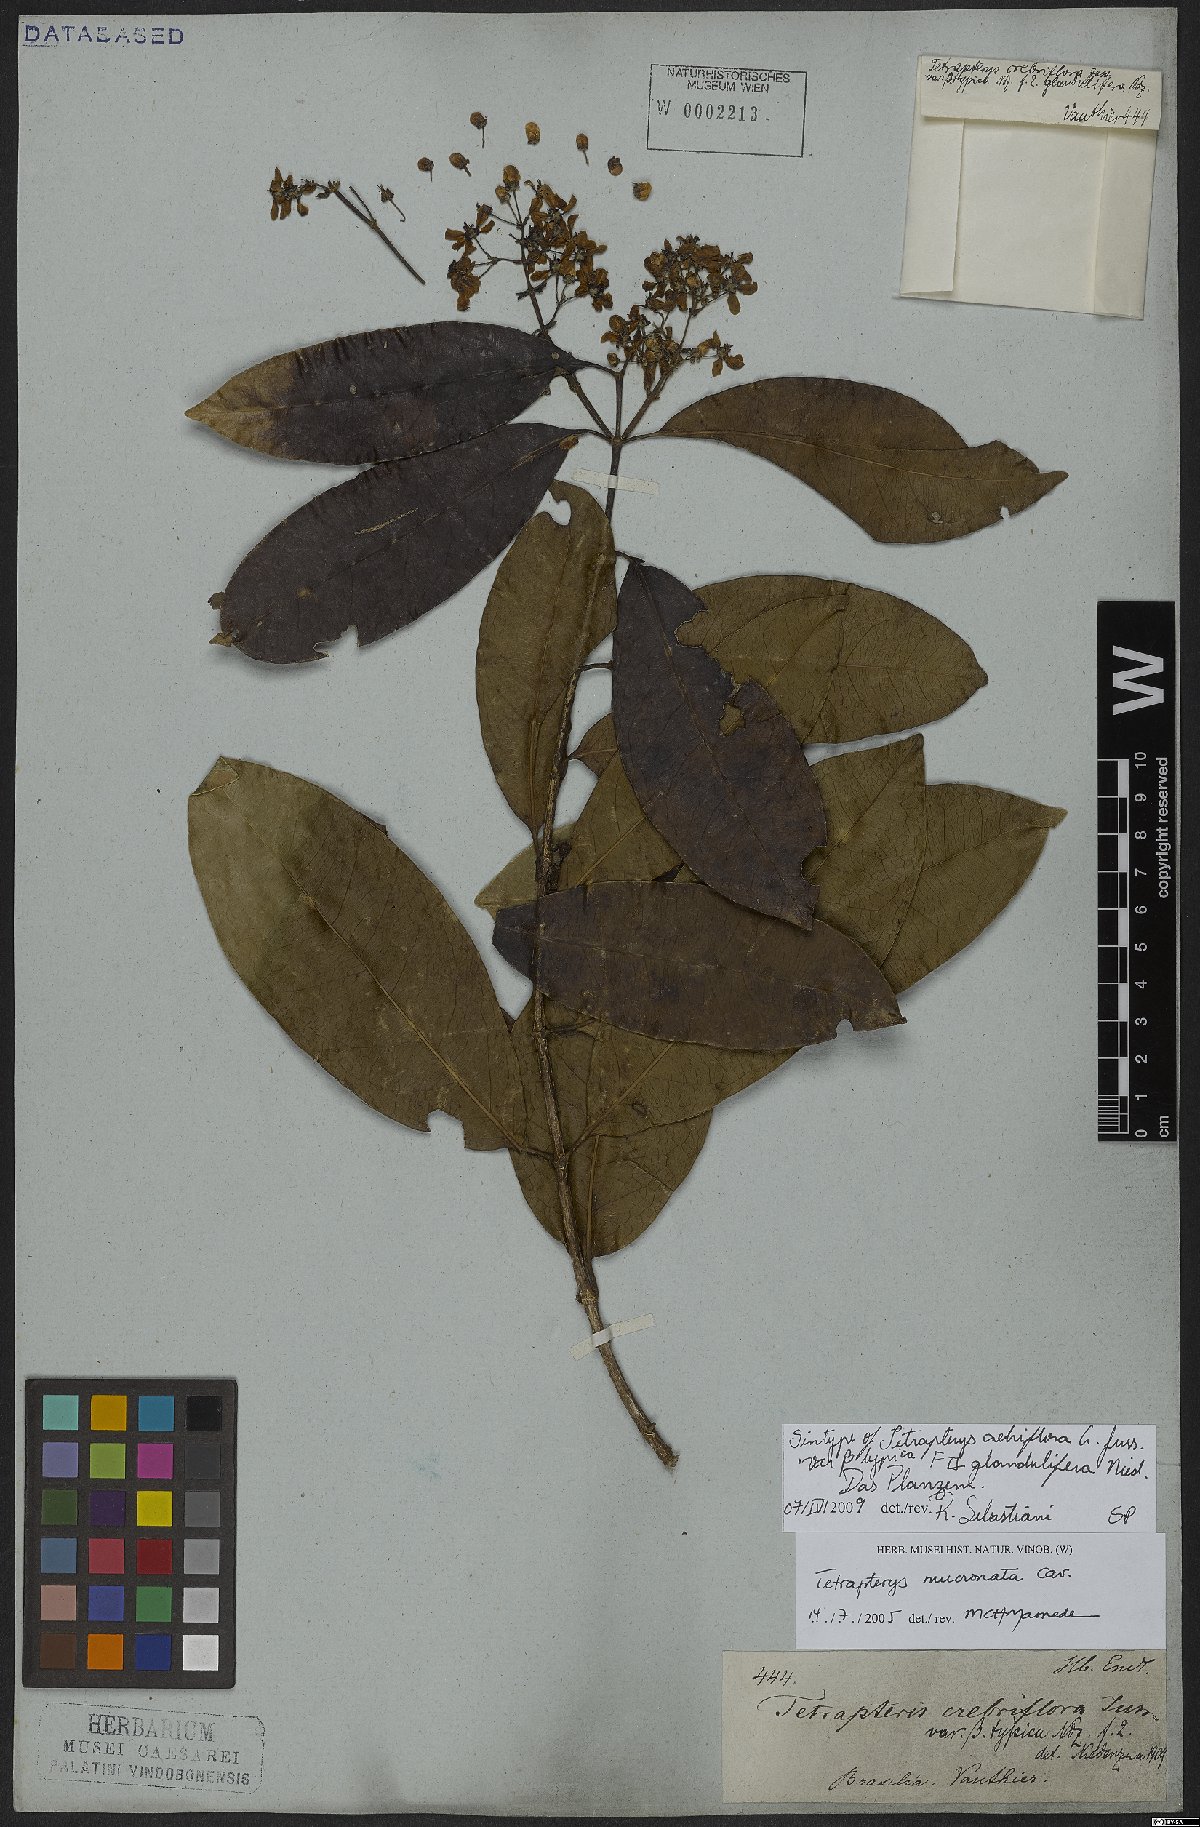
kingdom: Plantae
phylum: Tracheophyta
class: Magnoliopsida
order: Malpighiales
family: Malpighiaceae
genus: Tetrapterys
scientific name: Tetrapterys mucronata
